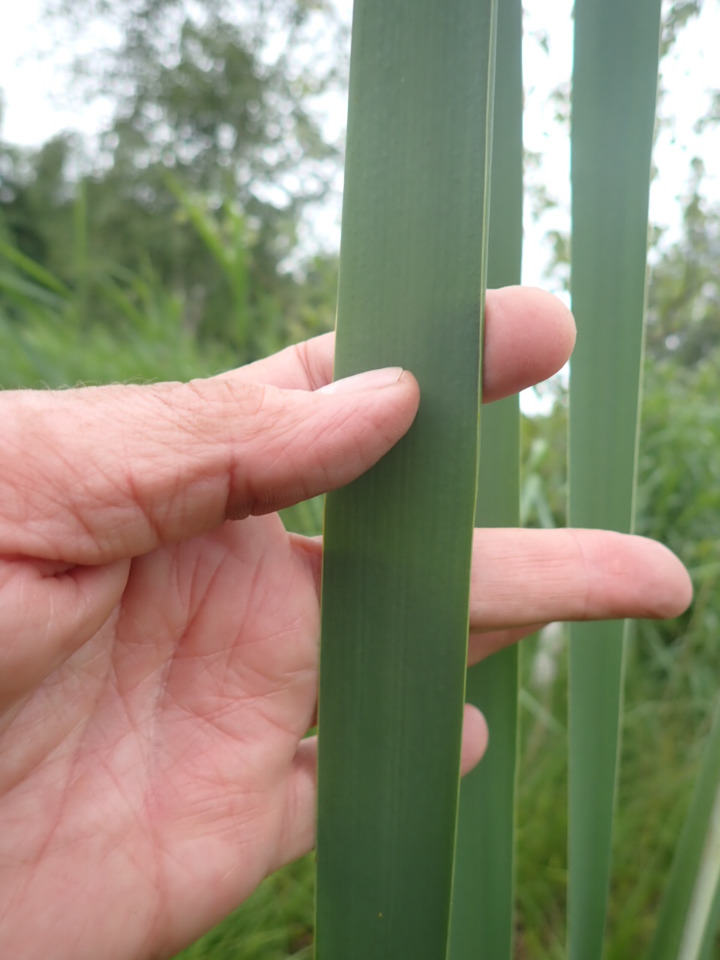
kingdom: Plantae
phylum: Tracheophyta
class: Liliopsida
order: Poales
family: Typhaceae
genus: Typha
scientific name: Typha latifolia
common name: Bredbladet dunhammer
